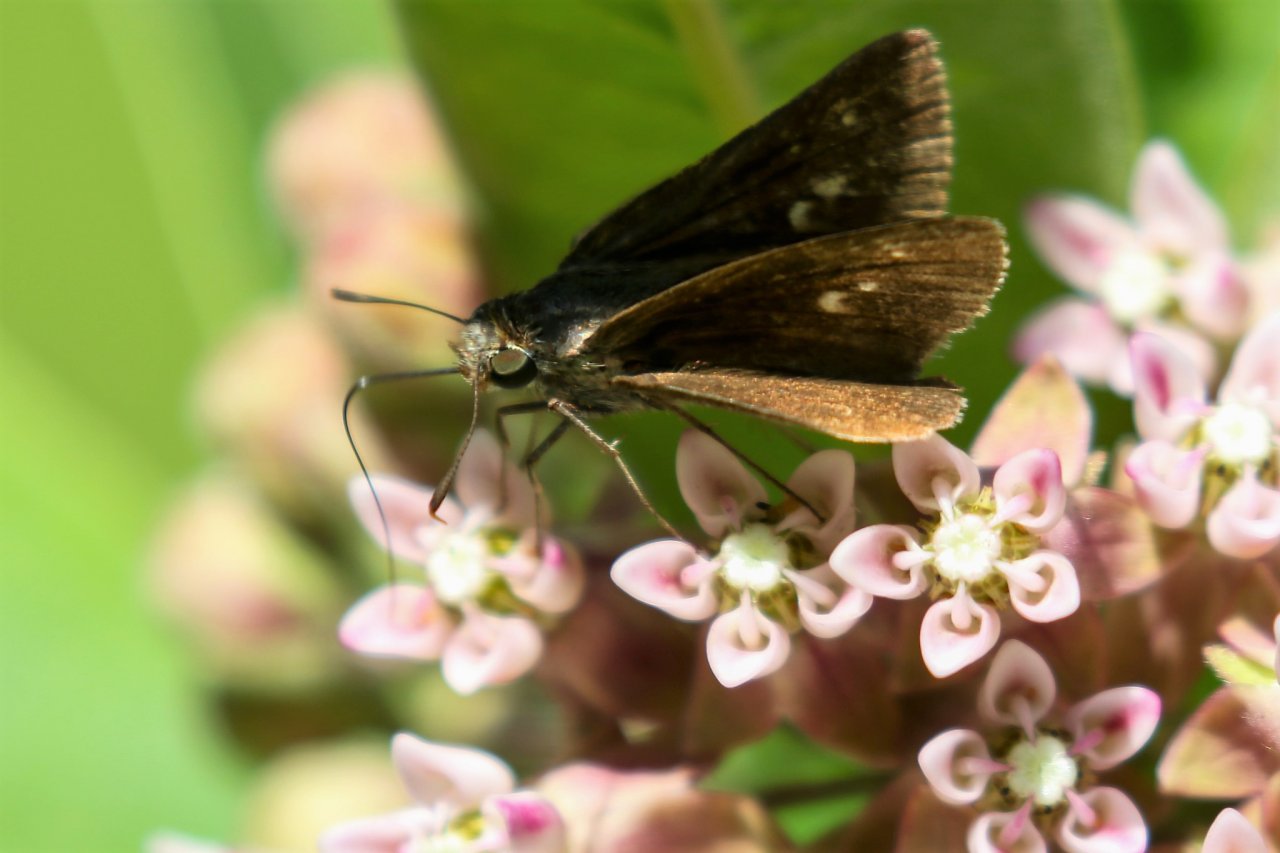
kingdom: Animalia
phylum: Arthropoda
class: Insecta
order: Lepidoptera
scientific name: Lepidoptera
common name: Butterflies
